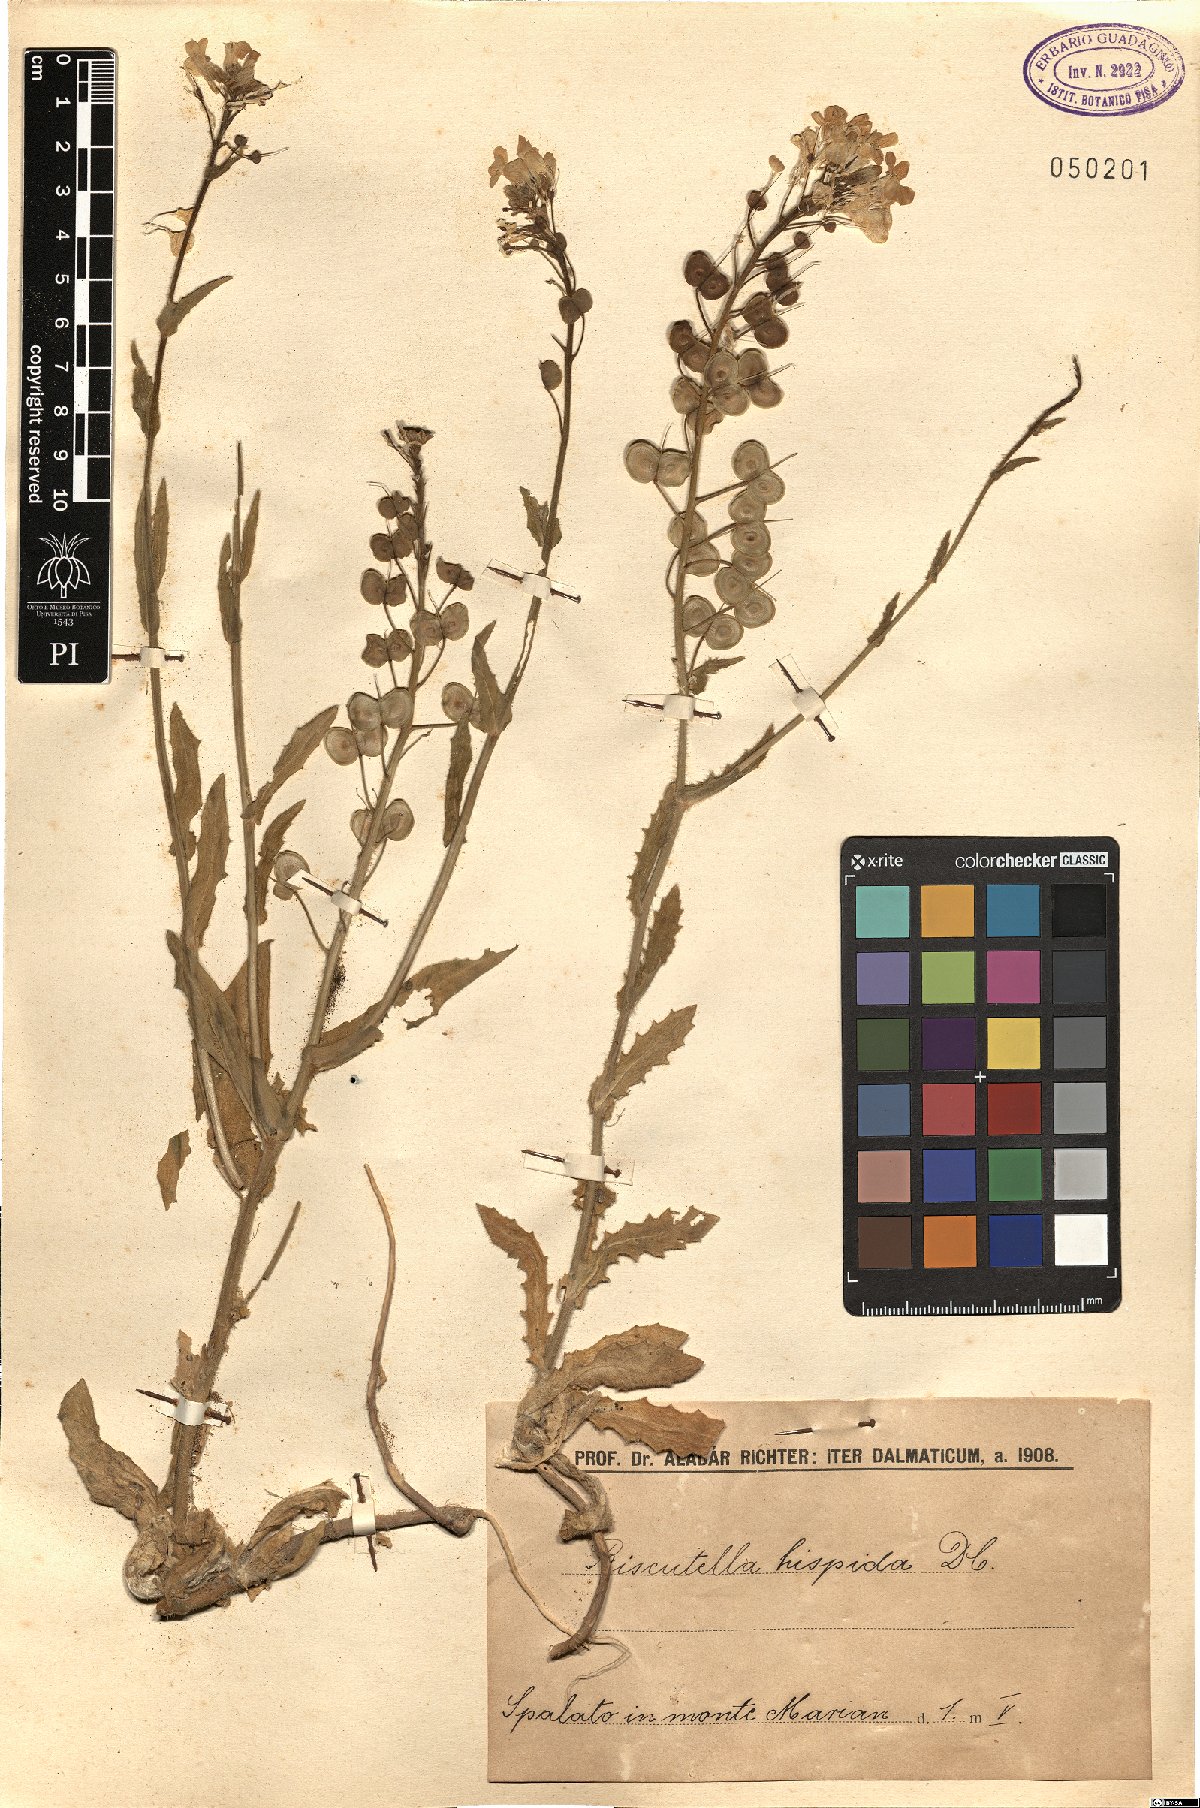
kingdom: Plantae
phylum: Tracheophyta
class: Magnoliopsida
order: Brassicales
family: Brassicaceae
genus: Biscutella
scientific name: Biscutella cichoriifolia
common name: Chicory-leaf buckler mustard
